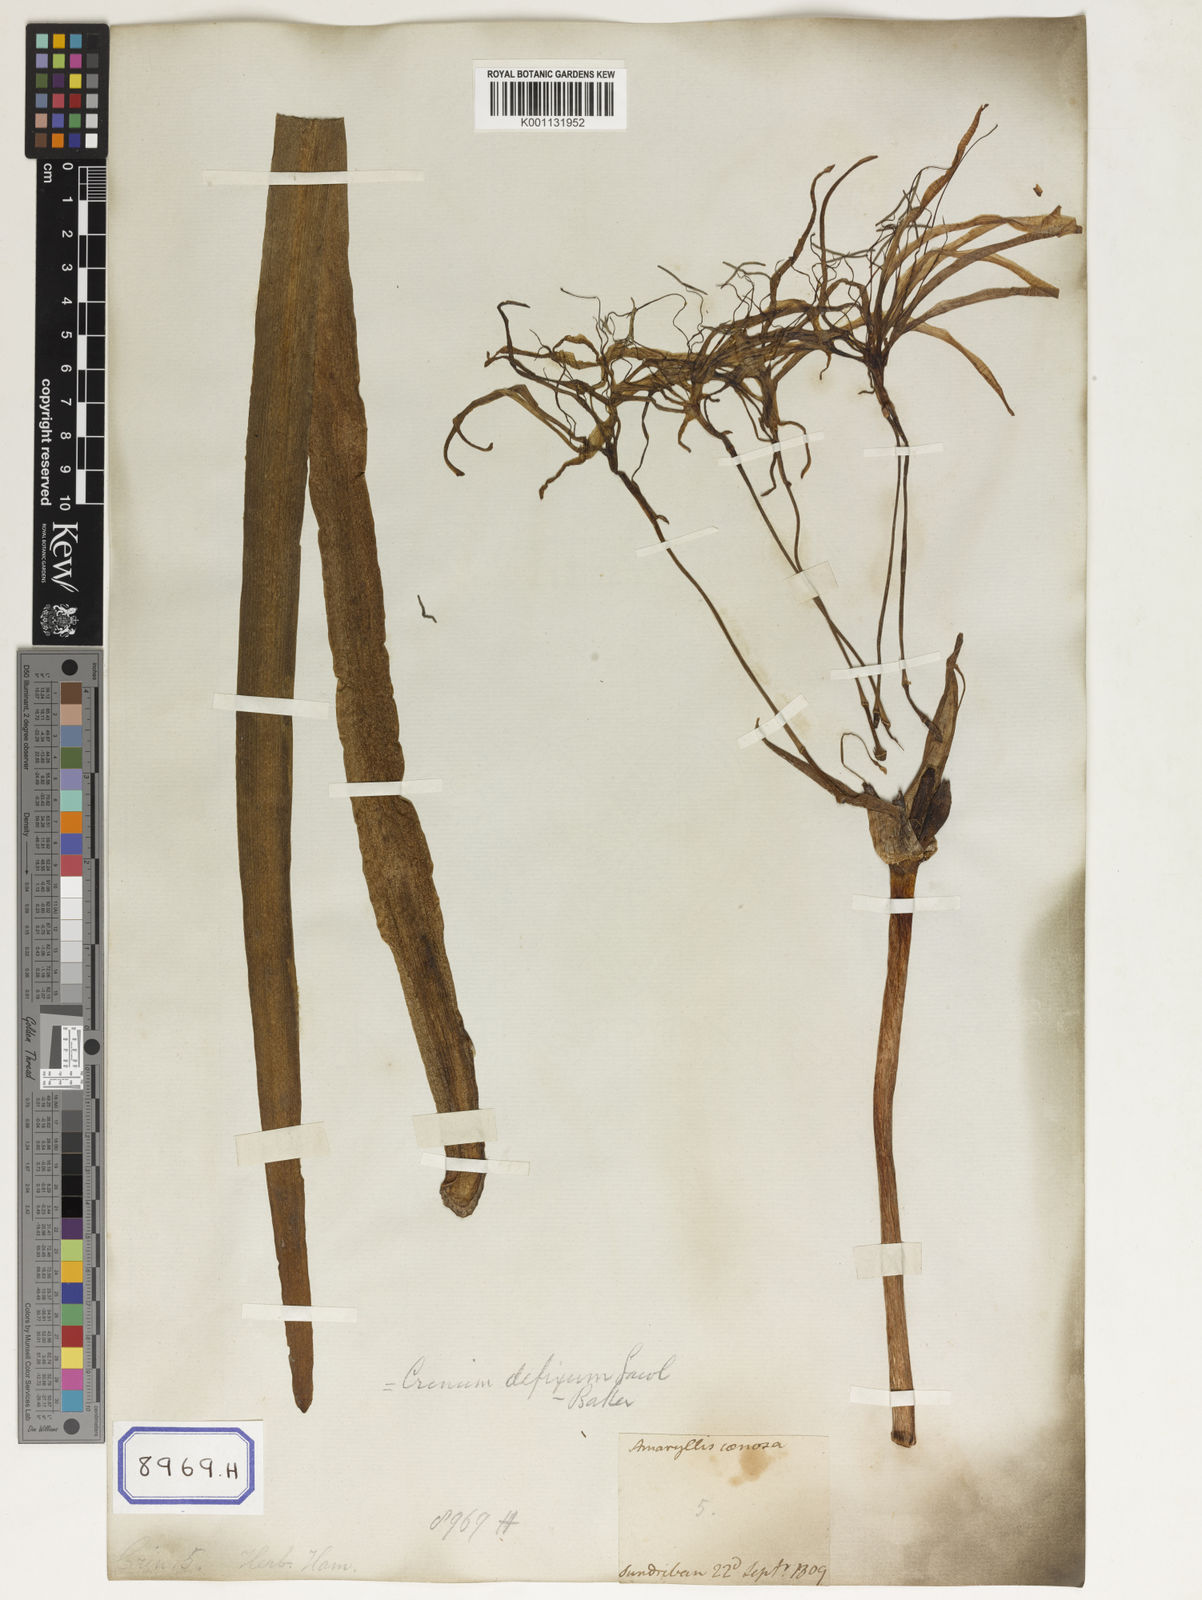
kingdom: Plantae
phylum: Tracheophyta
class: Liliopsida
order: Asparagales
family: Amaryllidaceae
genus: Crinum
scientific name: Crinum asiaticum
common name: Poisonbulb
